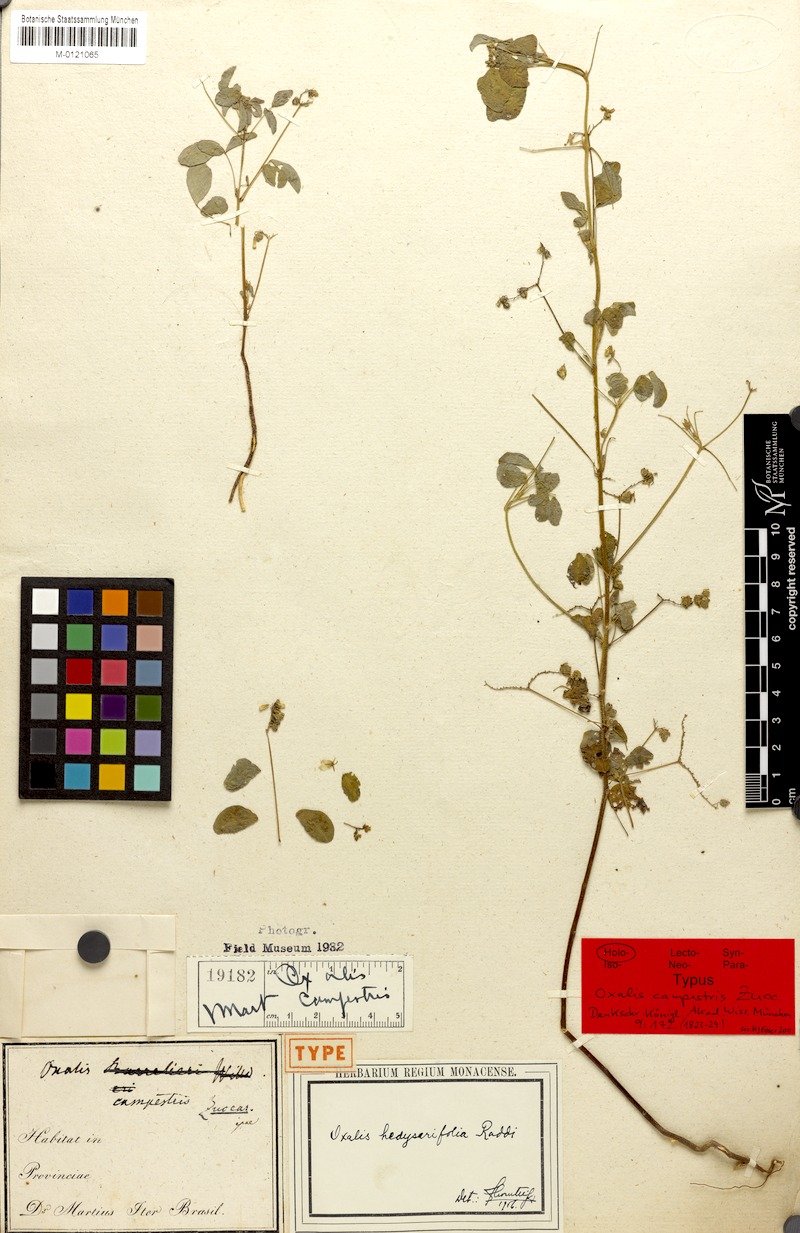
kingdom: Plantae
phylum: Tracheophyta
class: Magnoliopsida
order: Oxalidales
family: Oxalidaceae
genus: Oxalis
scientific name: Oxalis frutescens
